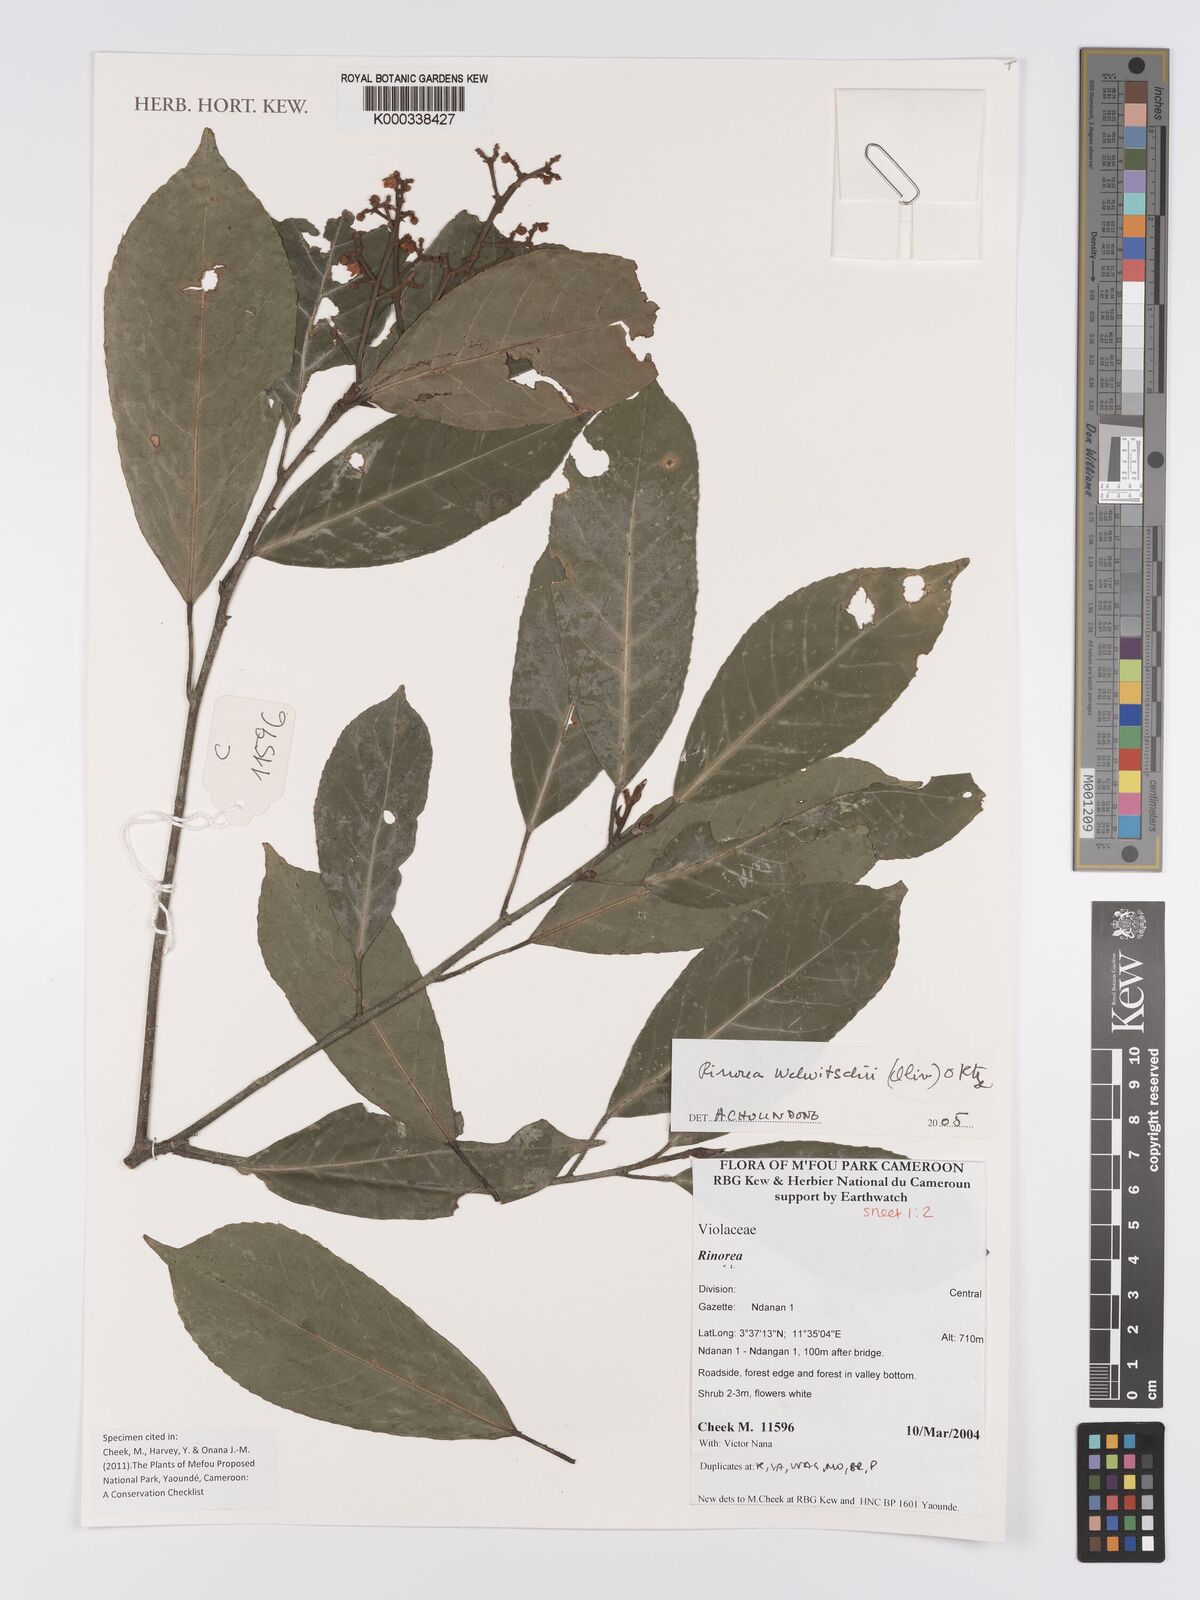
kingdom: Plantae
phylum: Tracheophyta
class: Magnoliopsida
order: Malpighiales
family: Violaceae
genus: Rinorea
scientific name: Rinorea welwitschii
